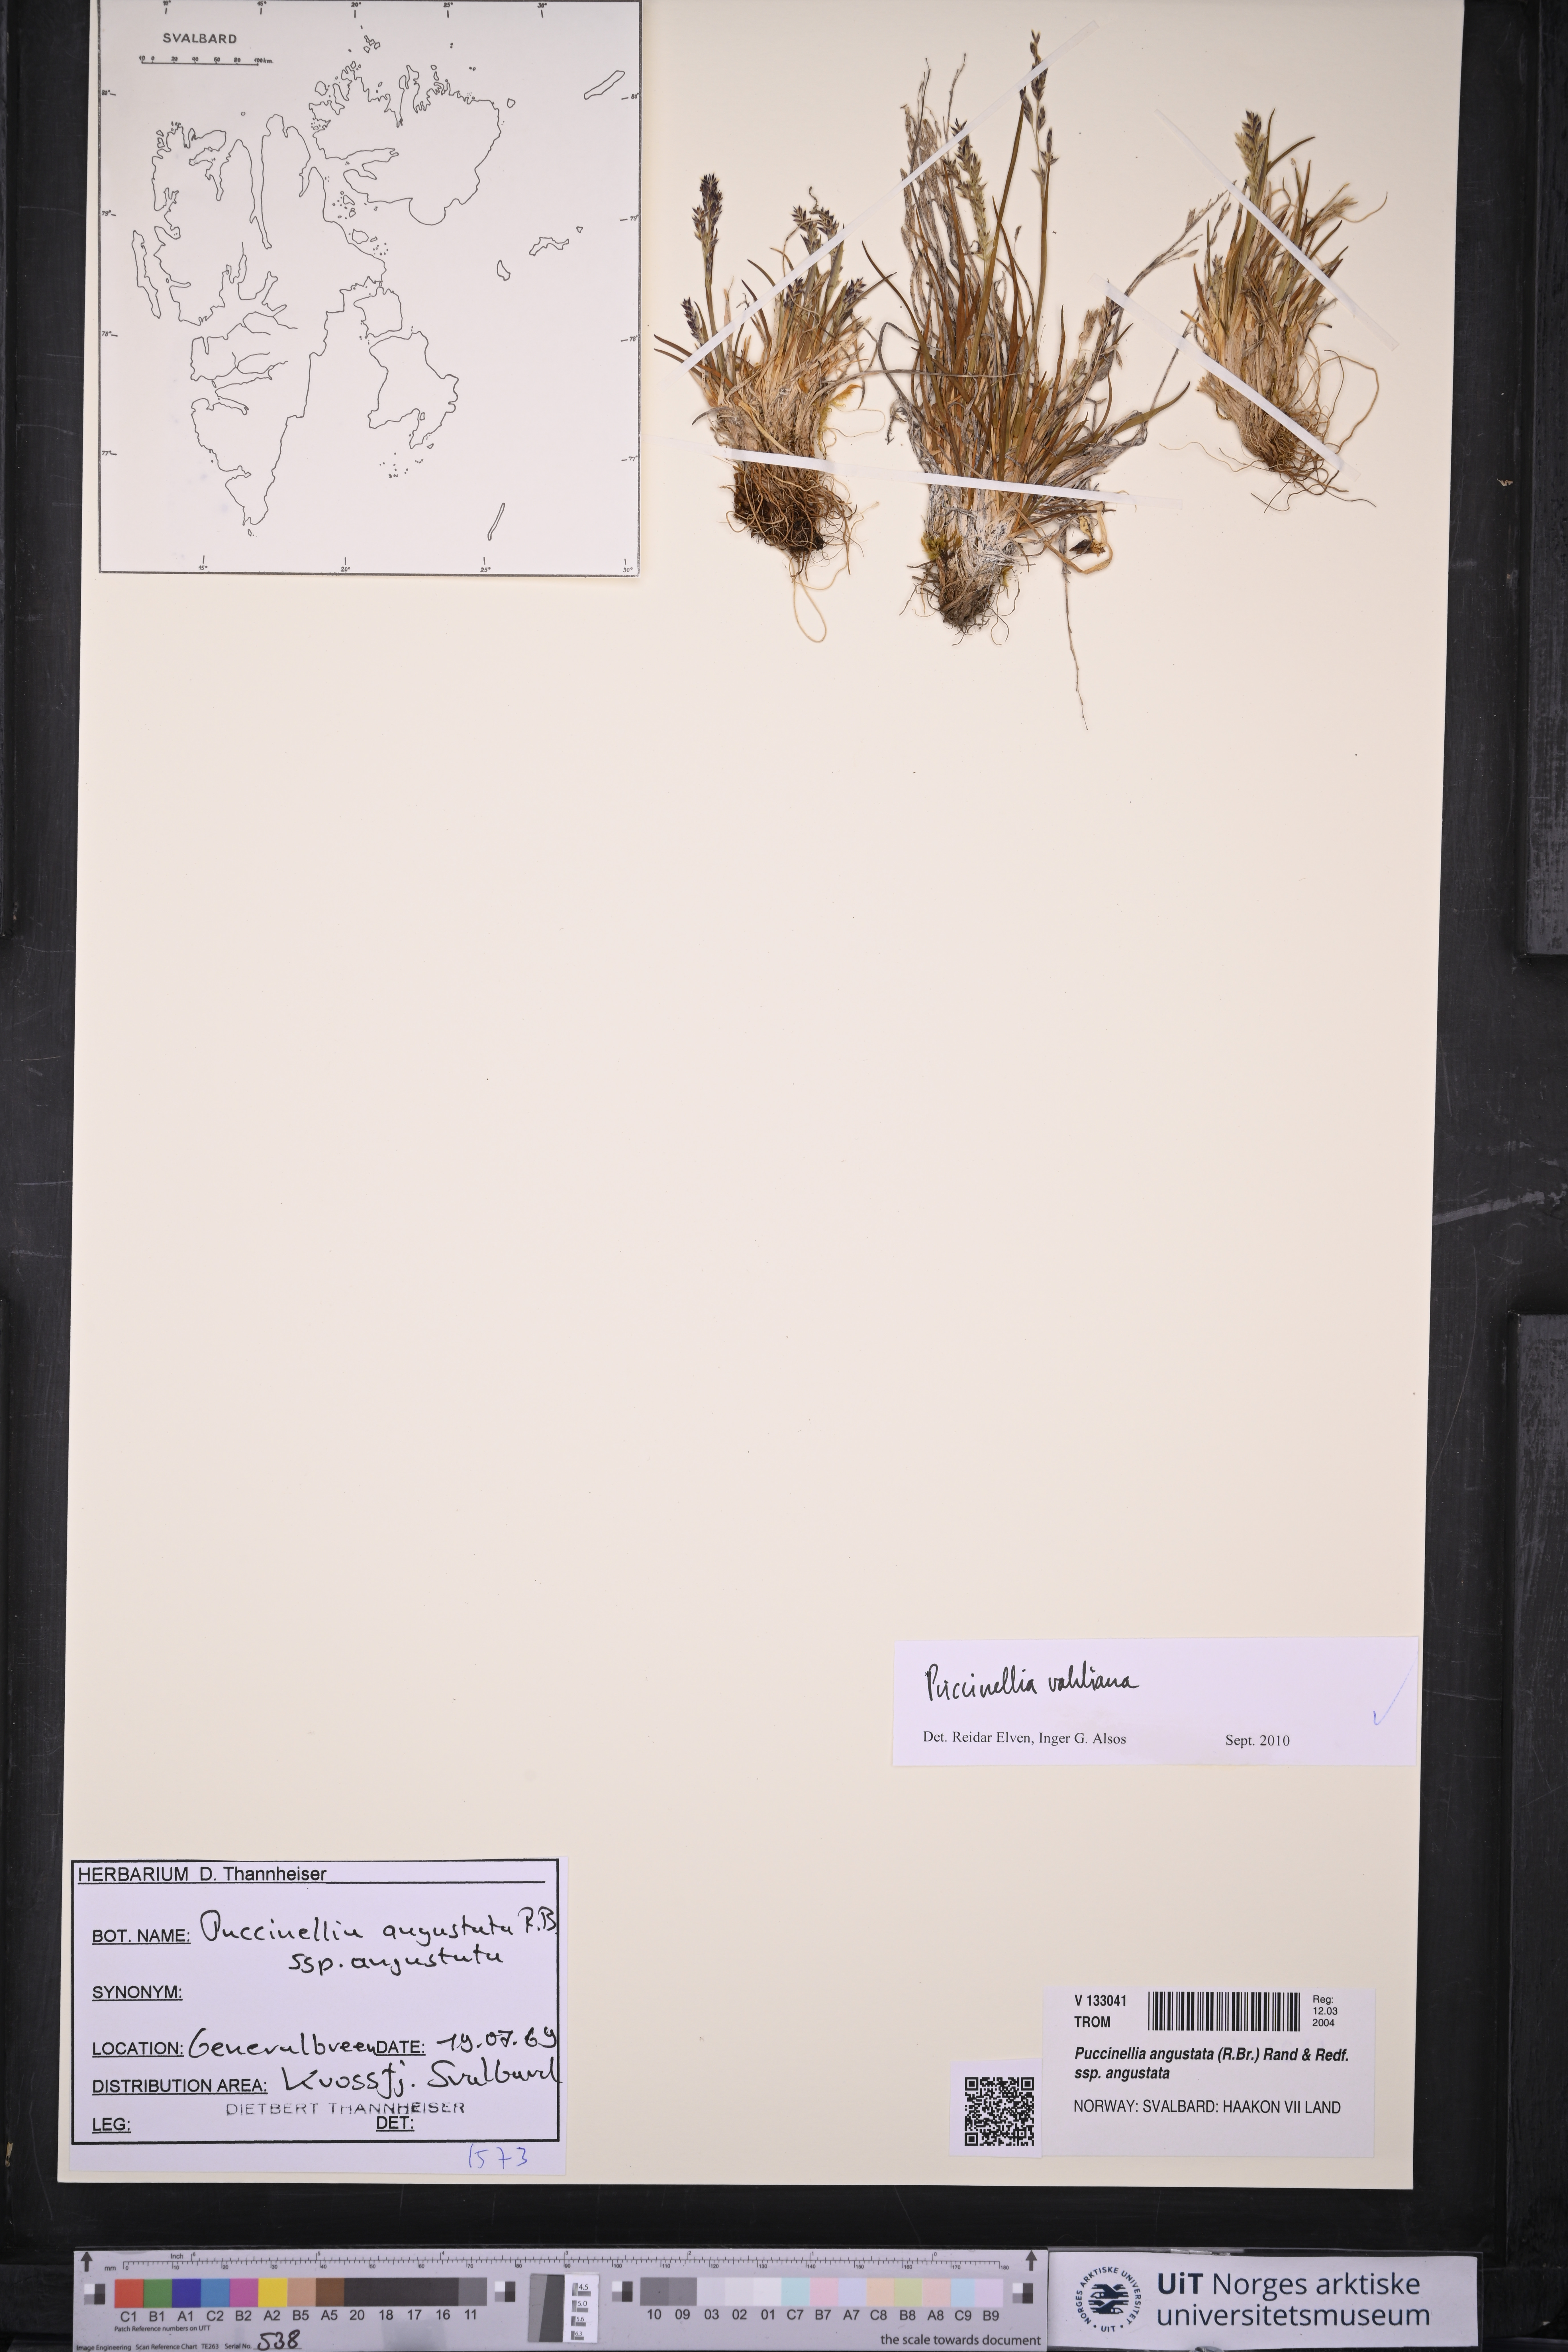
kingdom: Plantae
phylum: Tracheophyta
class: Liliopsida
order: Poales
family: Poaceae
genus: Puccinellia
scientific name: Puccinellia vahliana
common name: Vahl's alkaligrass
